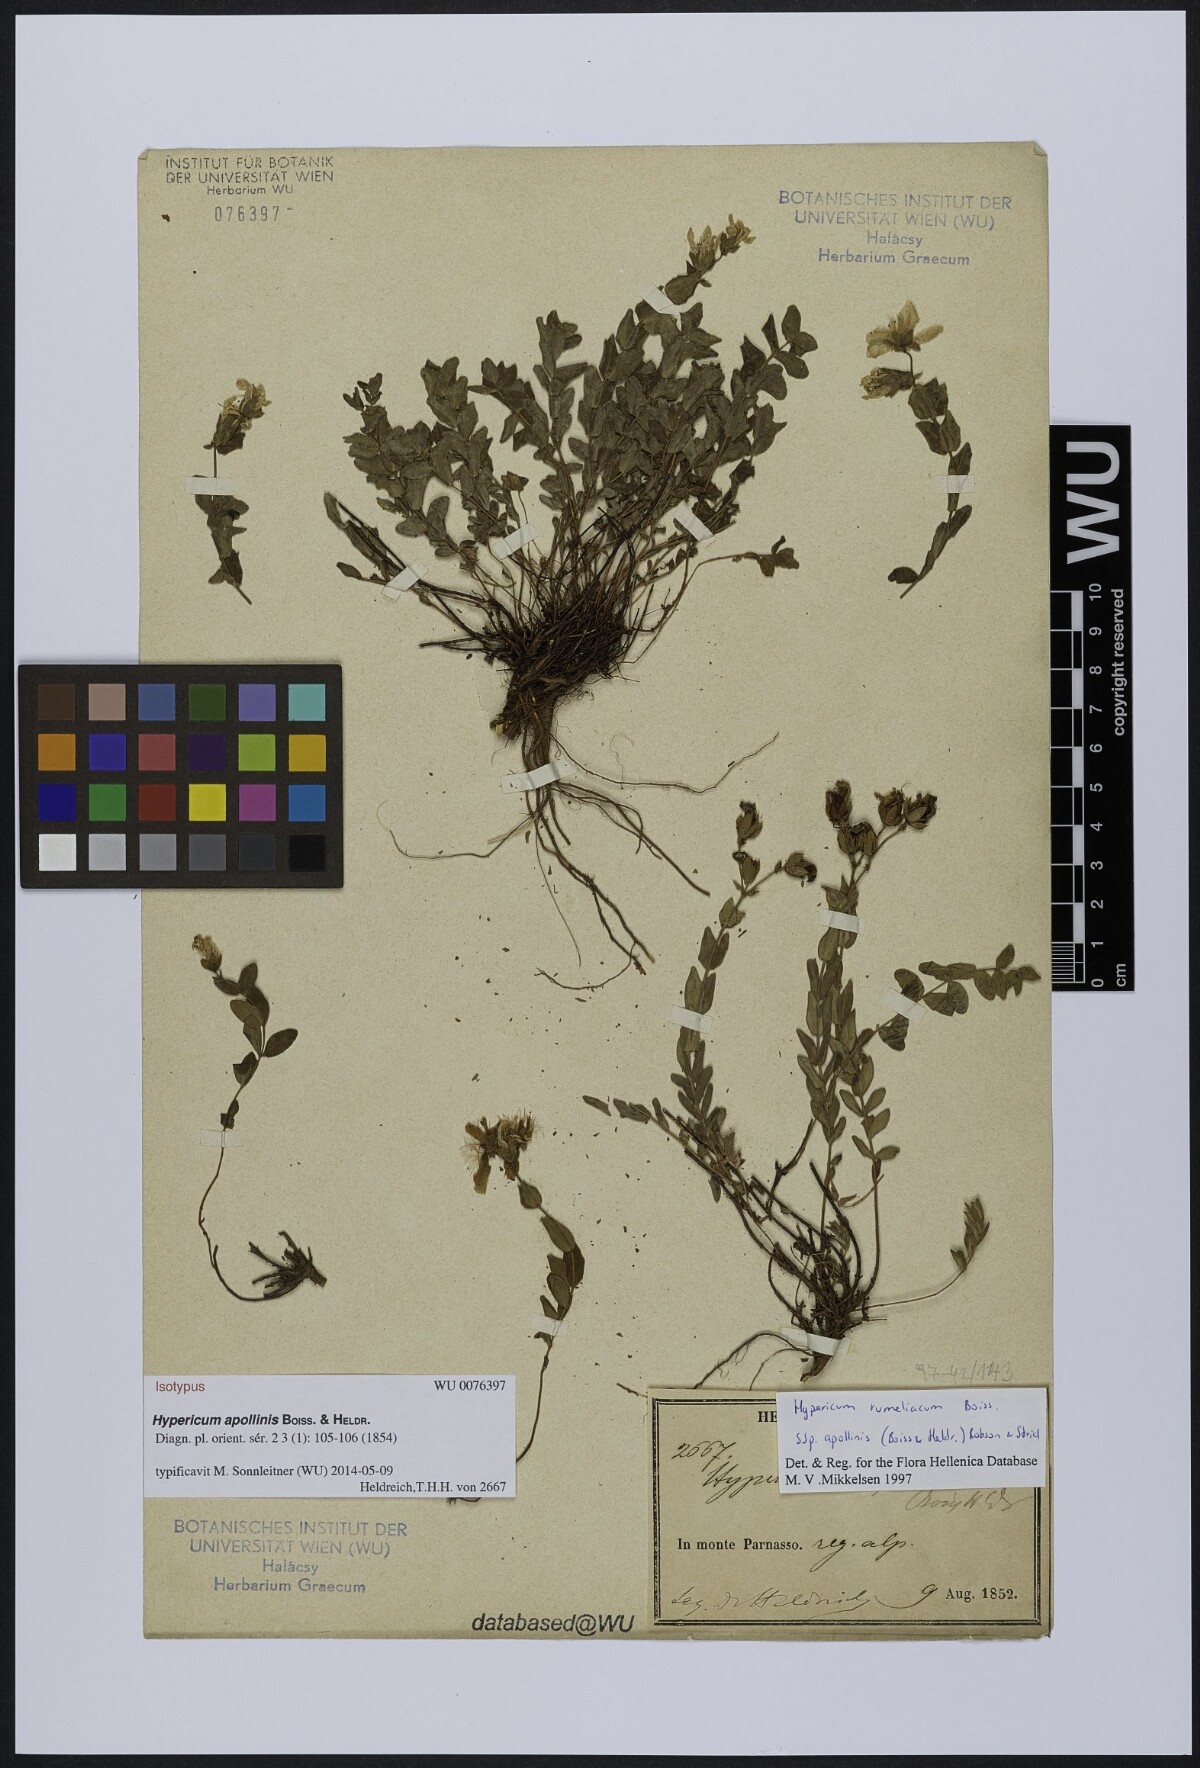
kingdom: Plantae
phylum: Tracheophyta
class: Magnoliopsida
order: Malpighiales
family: Hypericaceae
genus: Hypericum
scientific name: Hypericum rumeliacum
